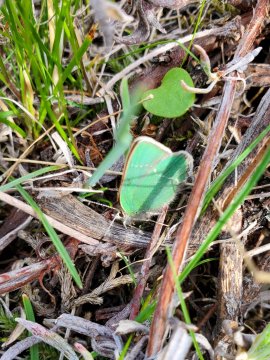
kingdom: Animalia
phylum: Arthropoda
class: Insecta
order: Lepidoptera
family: Lycaenidae
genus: Thecla
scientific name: Thecla sheridanii
